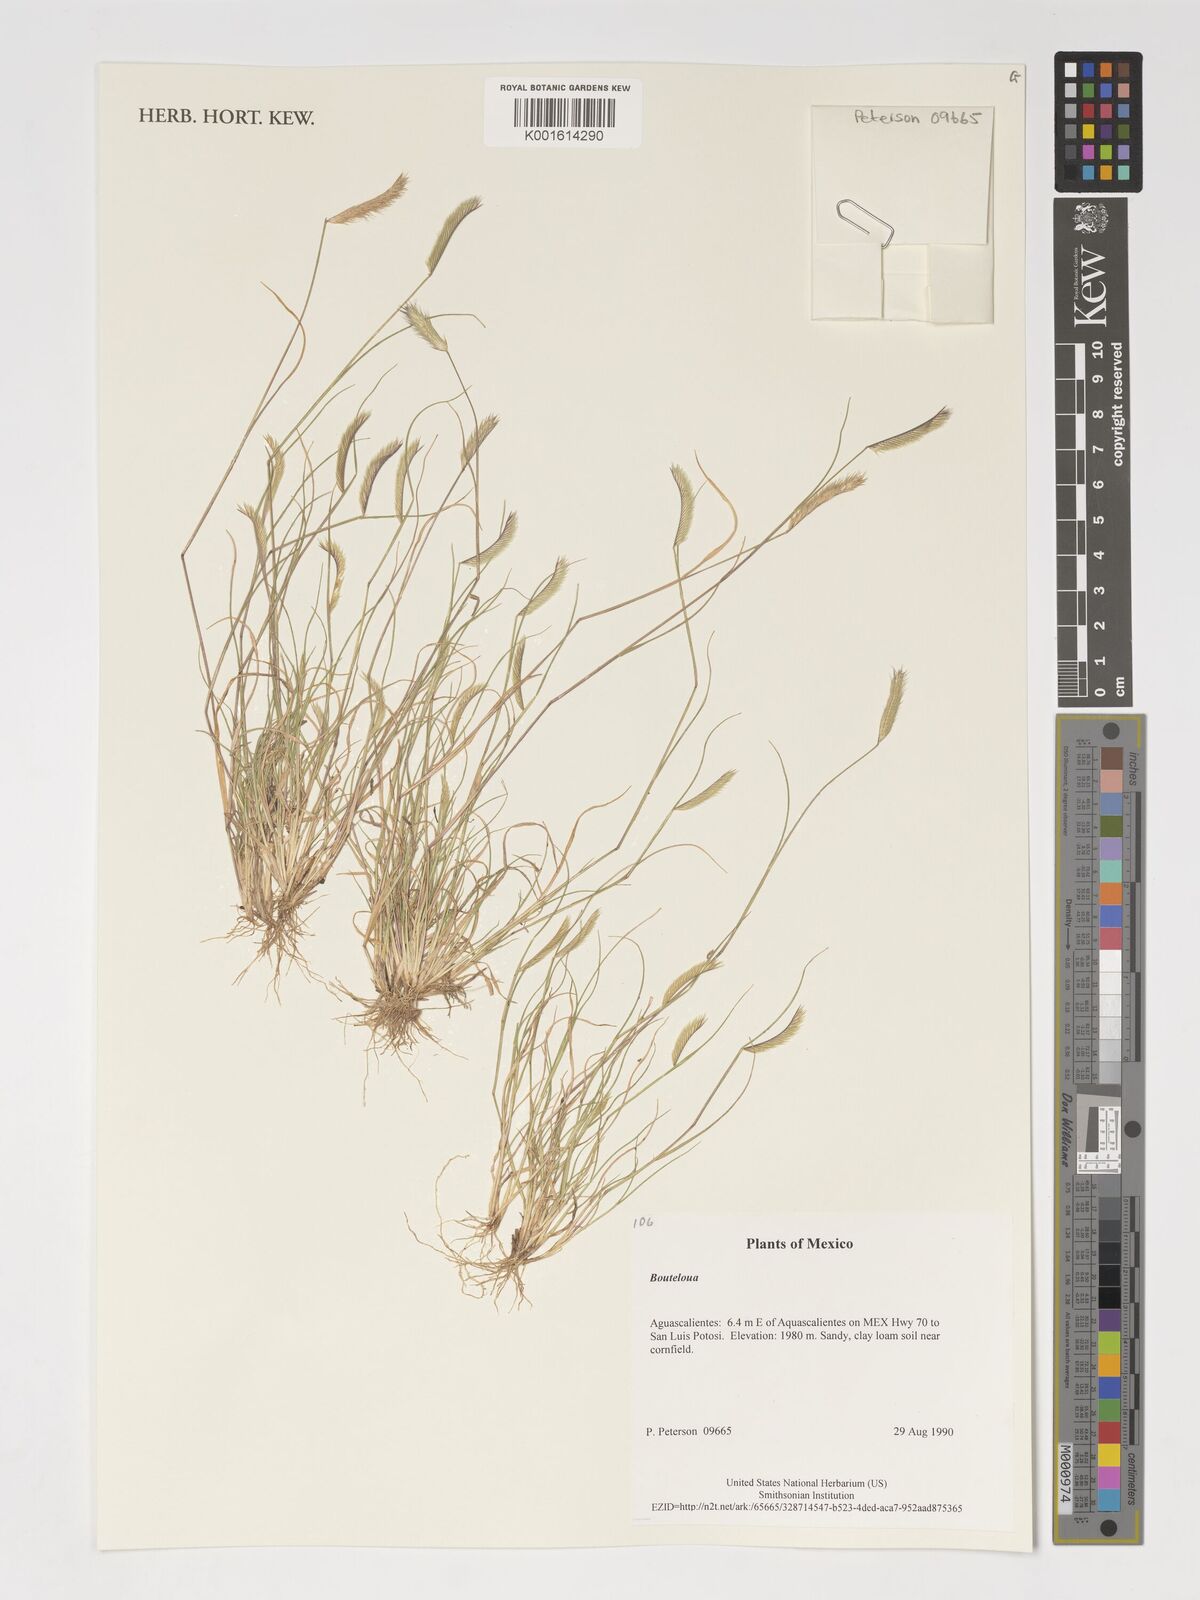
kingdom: Plantae
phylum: Tracheophyta
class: Liliopsida
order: Poales
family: Poaceae
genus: Bouteloua
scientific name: Bouteloua
